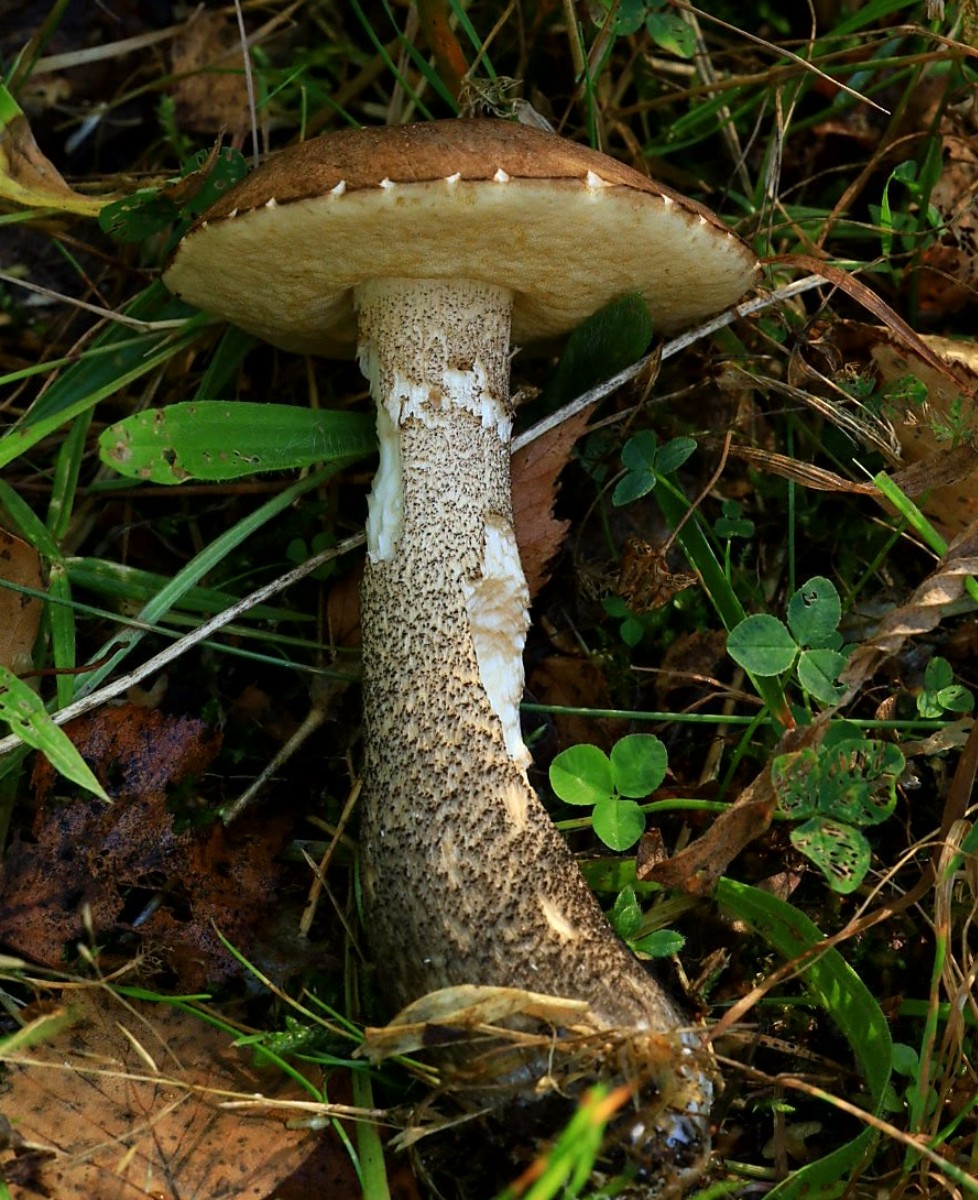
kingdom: Fungi
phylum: Basidiomycota
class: Agaricomycetes
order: Boletales
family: Boletaceae
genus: Leccinum
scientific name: Leccinum scabrum
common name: brun skælrørhat
